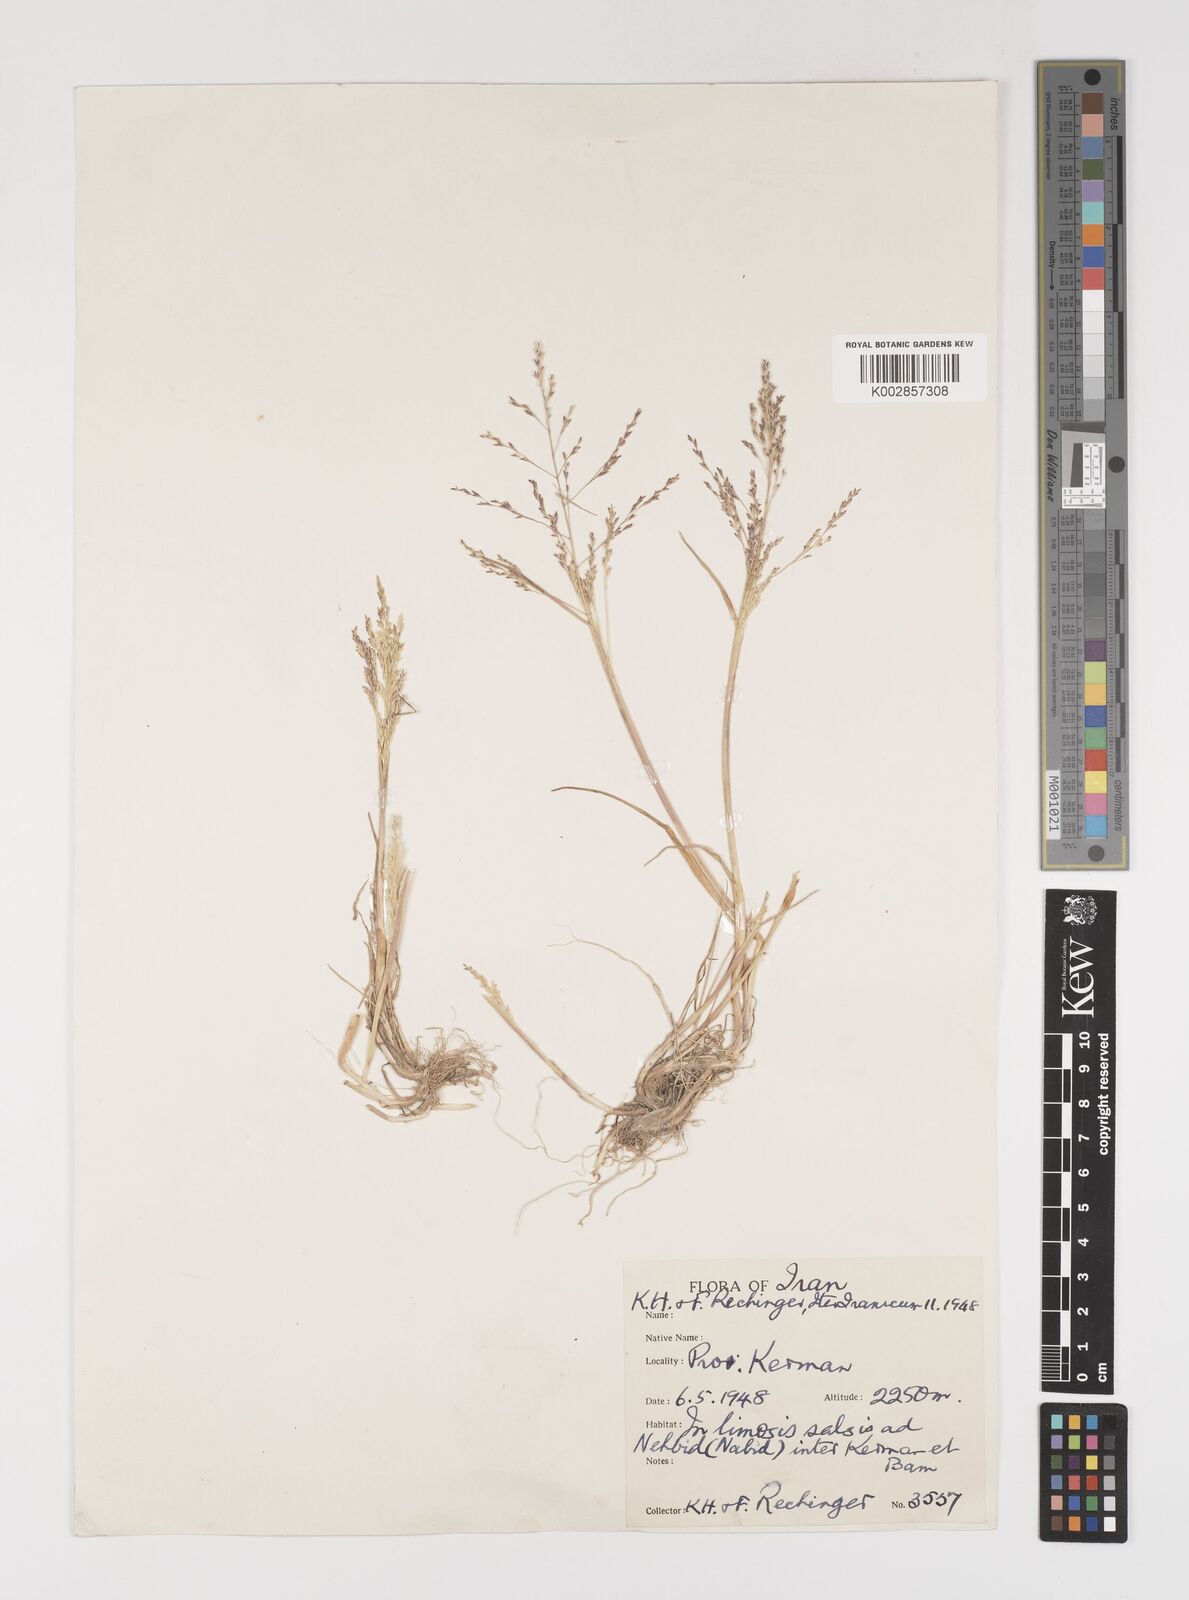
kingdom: Plantae
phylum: Tracheophyta
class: Liliopsida
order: Poales
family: Poaceae
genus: Puccinellia
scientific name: Puccinellia
